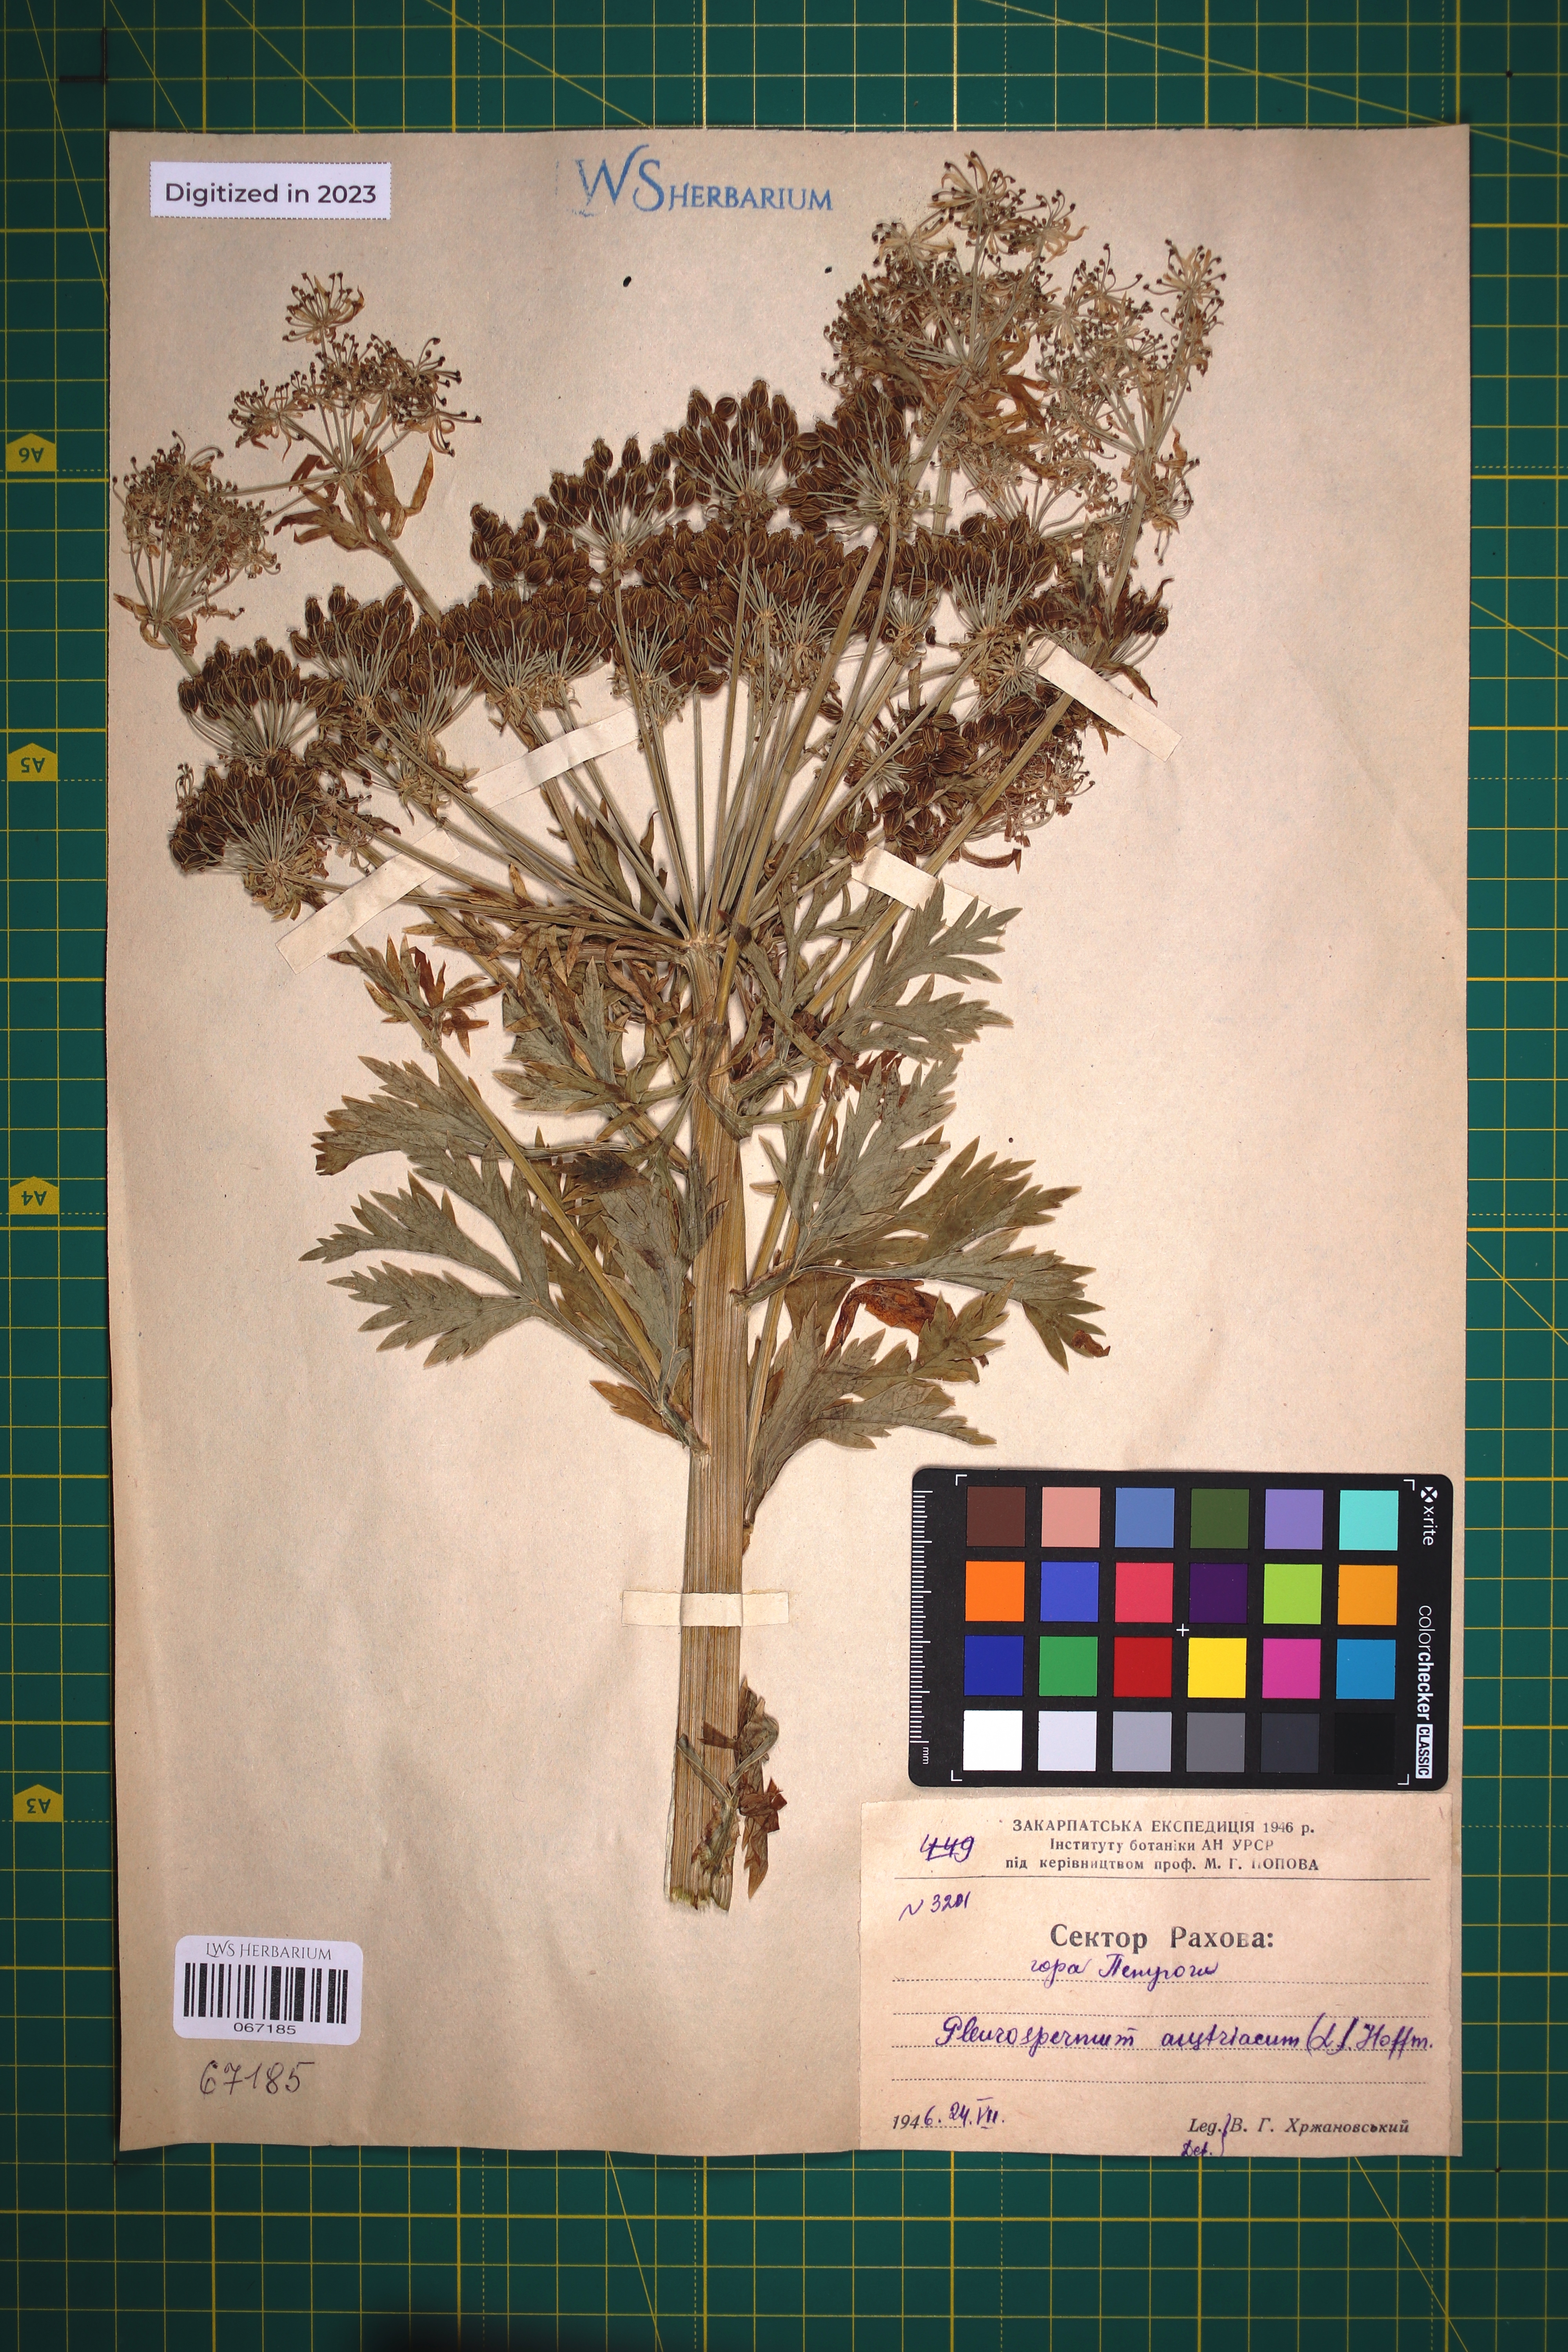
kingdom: Plantae
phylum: Tracheophyta
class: Magnoliopsida
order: Apiales
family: Apiaceae
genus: Pleurospermum
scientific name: Pleurospermum austriacum
